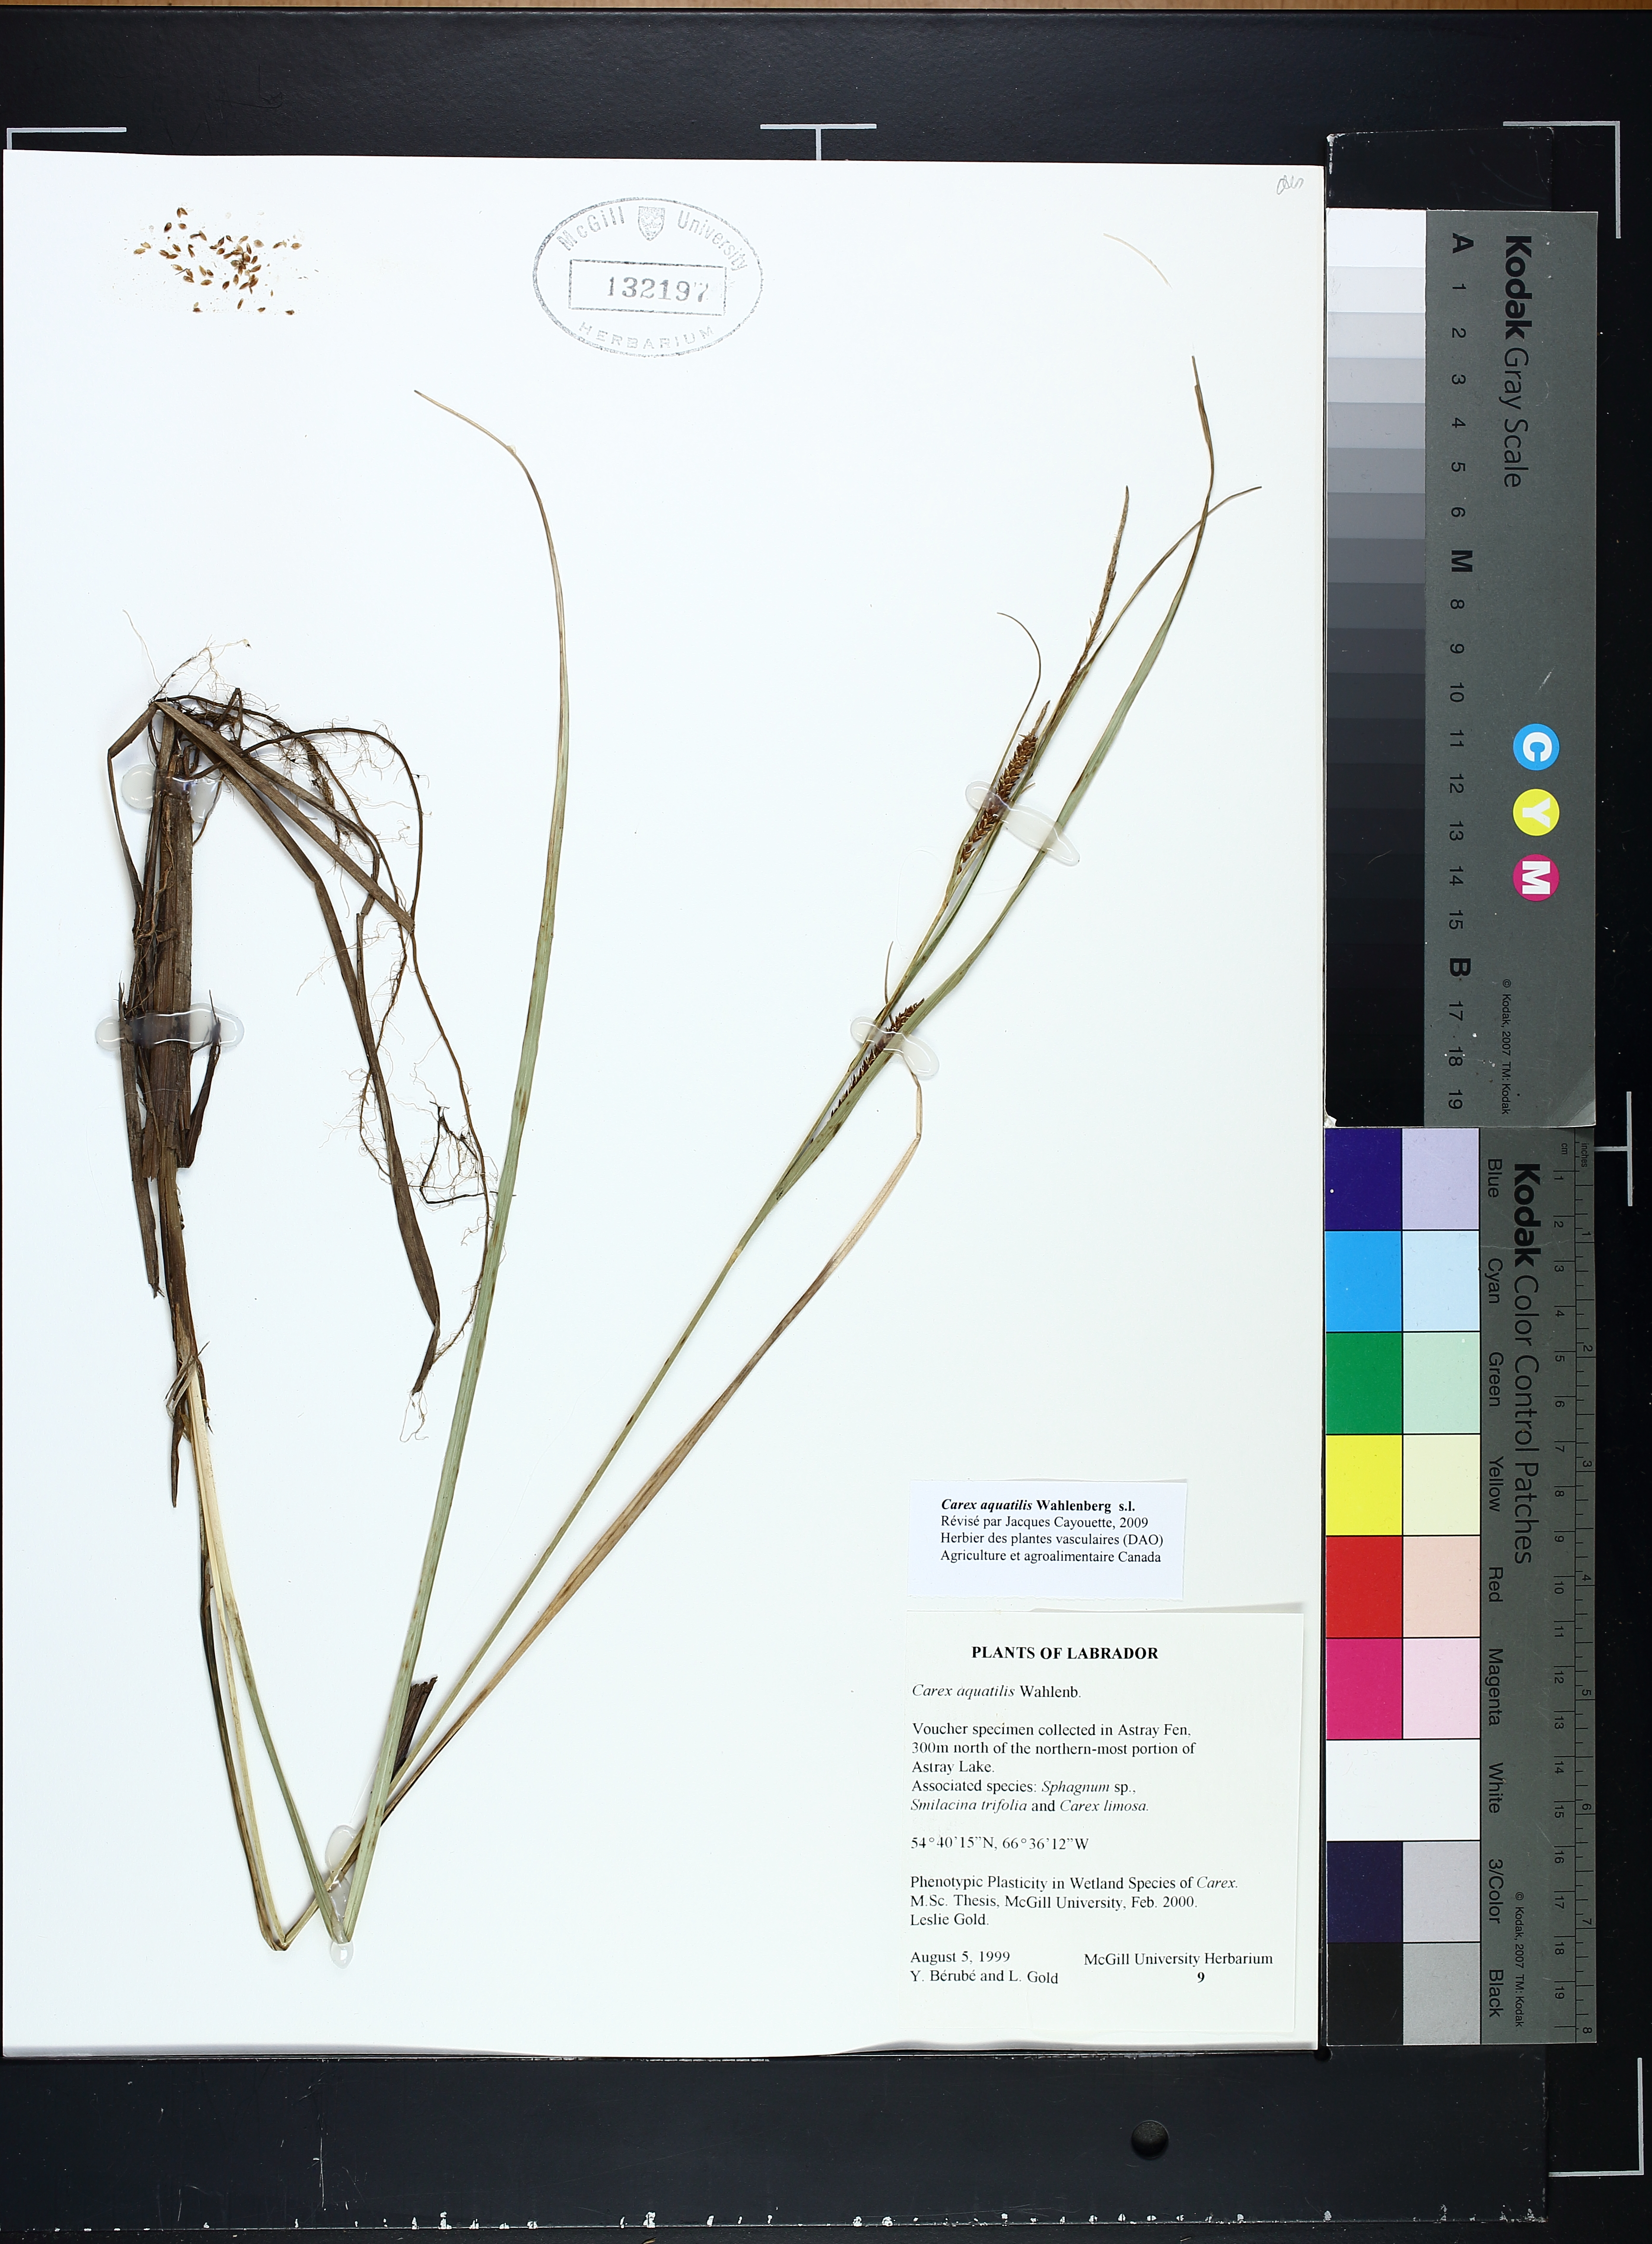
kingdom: Plantae
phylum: Tracheophyta
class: Liliopsida
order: Poales
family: Cyperaceae
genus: Carex
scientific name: Carex aquatilis
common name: Water sedge
